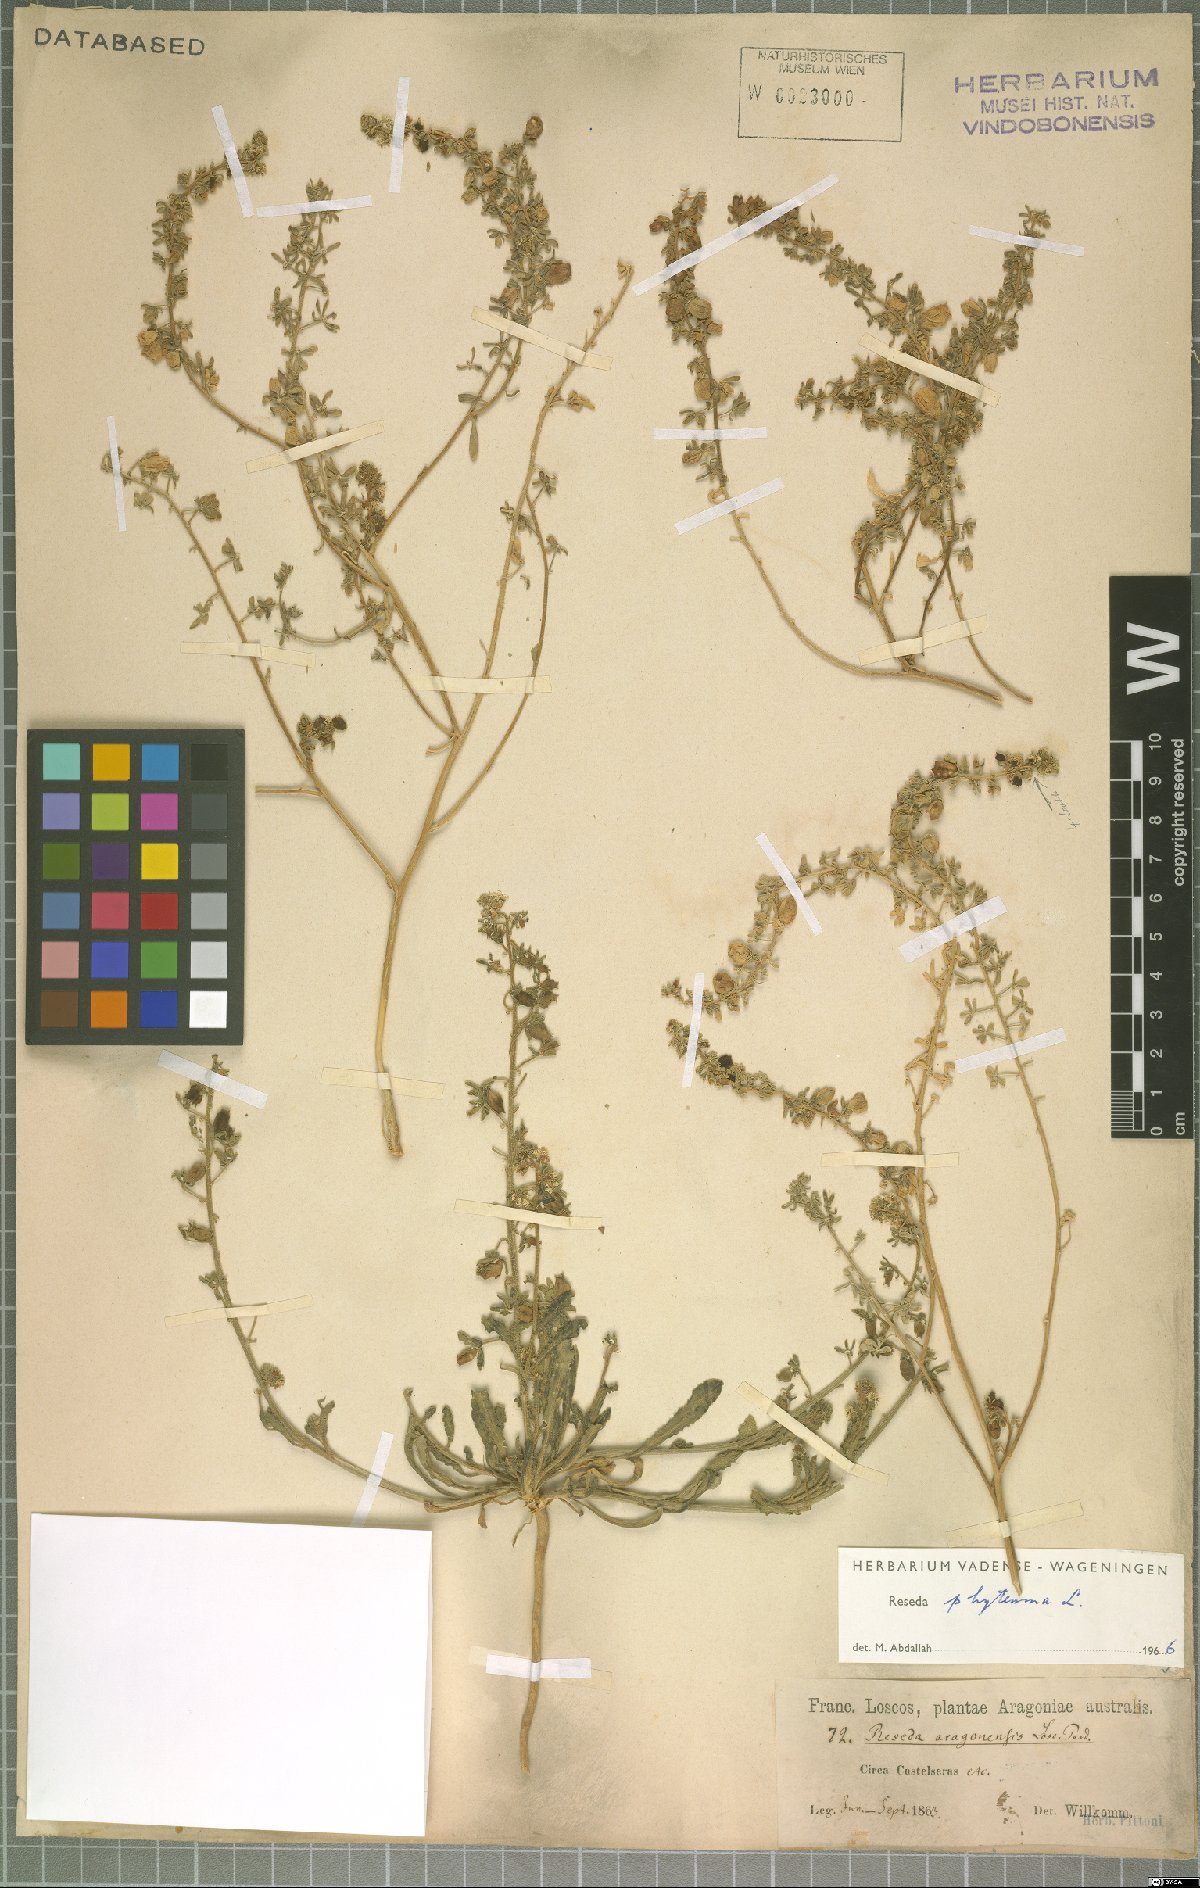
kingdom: Plantae
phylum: Tracheophyta
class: Magnoliopsida
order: Brassicales
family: Resedaceae
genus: Reseda
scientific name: Reseda phyteuma
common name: Corn mignonette
